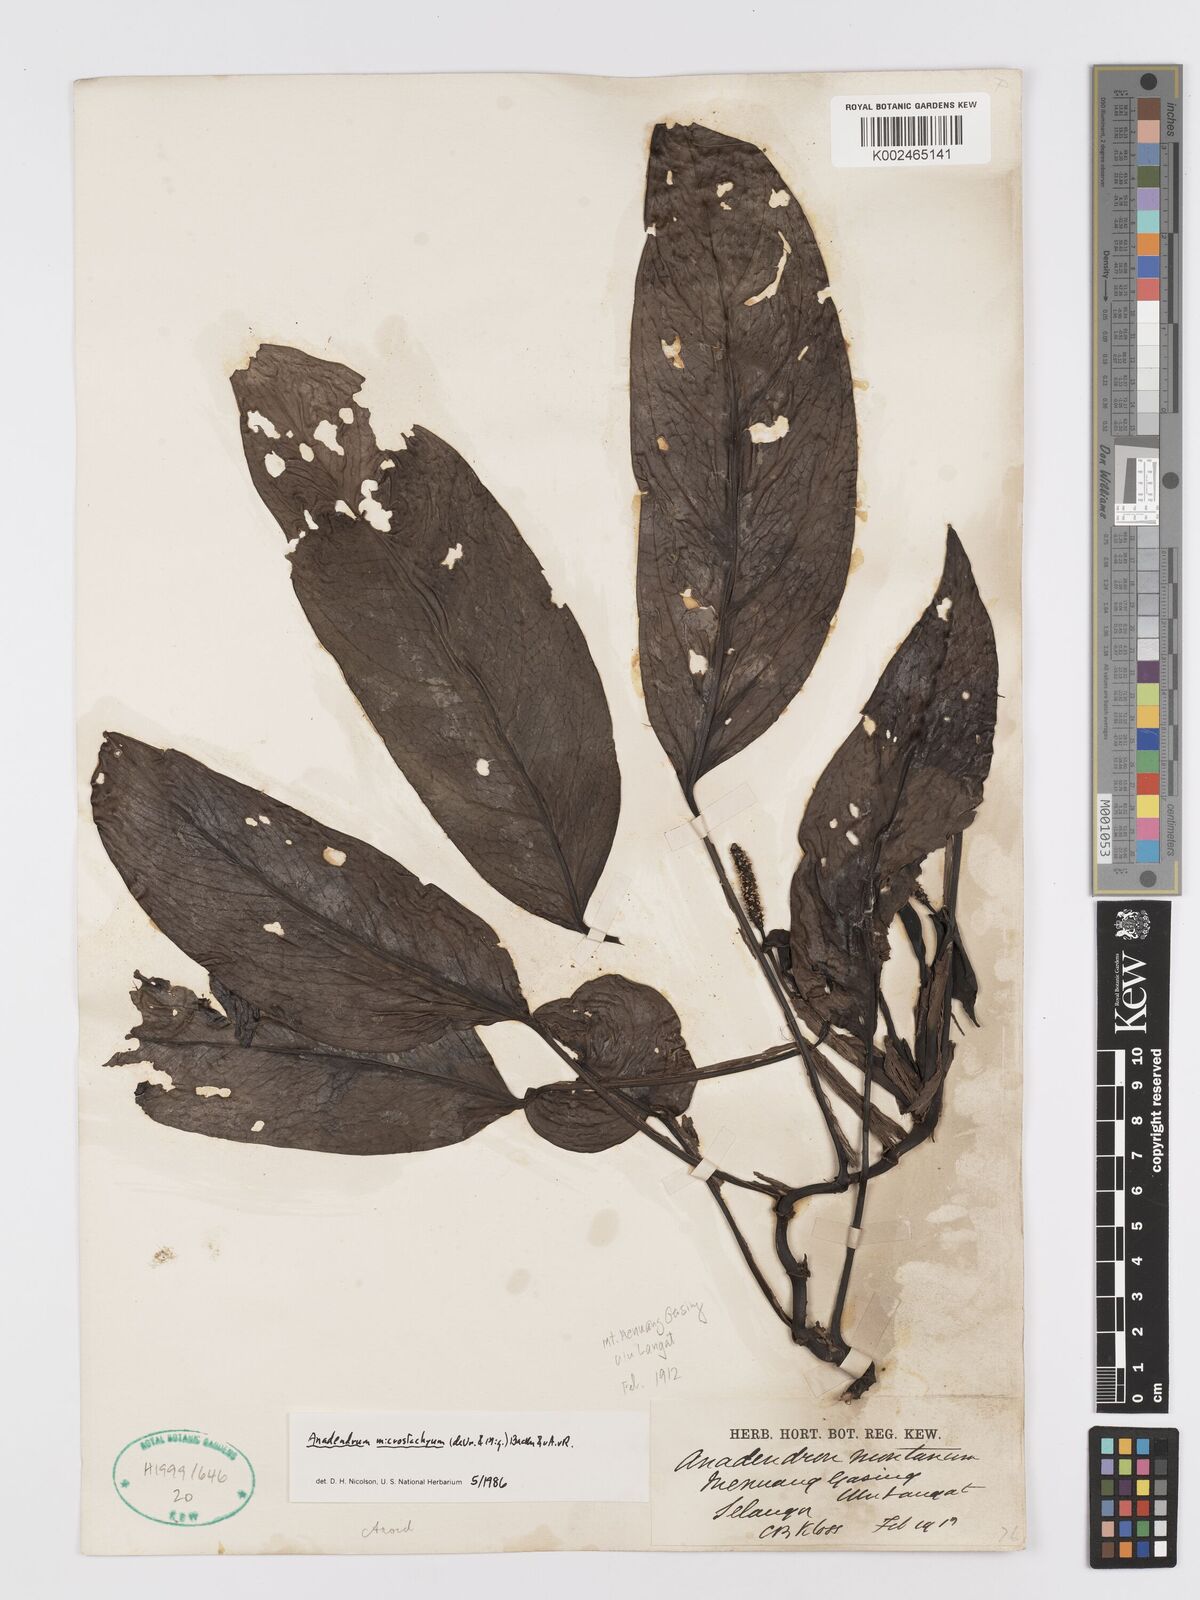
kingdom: Plantae
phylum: Tracheophyta
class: Liliopsida
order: Alismatales
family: Araceae
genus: Anadendrum
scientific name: Anadendrum microstachyum
